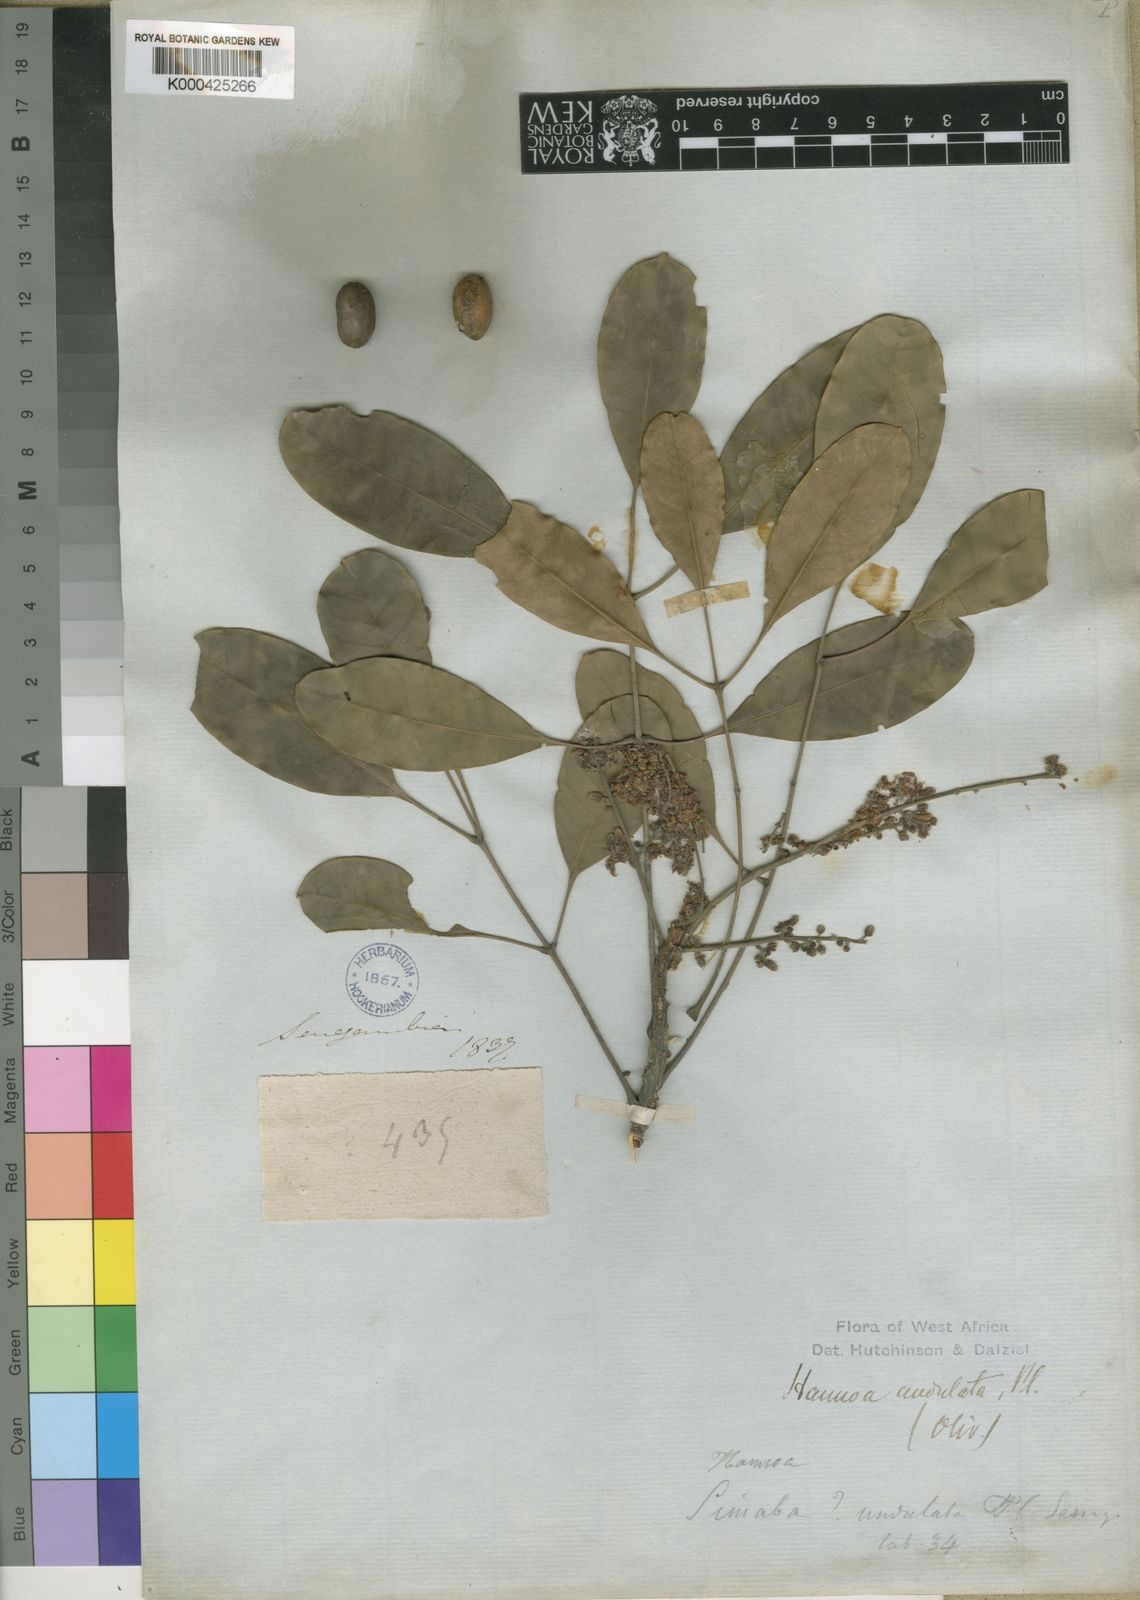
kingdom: Plantae
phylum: Tracheophyta
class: Magnoliopsida
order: Sapindales
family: Simaroubaceae
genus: Odyendyea
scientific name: Odyendyea klaineana
